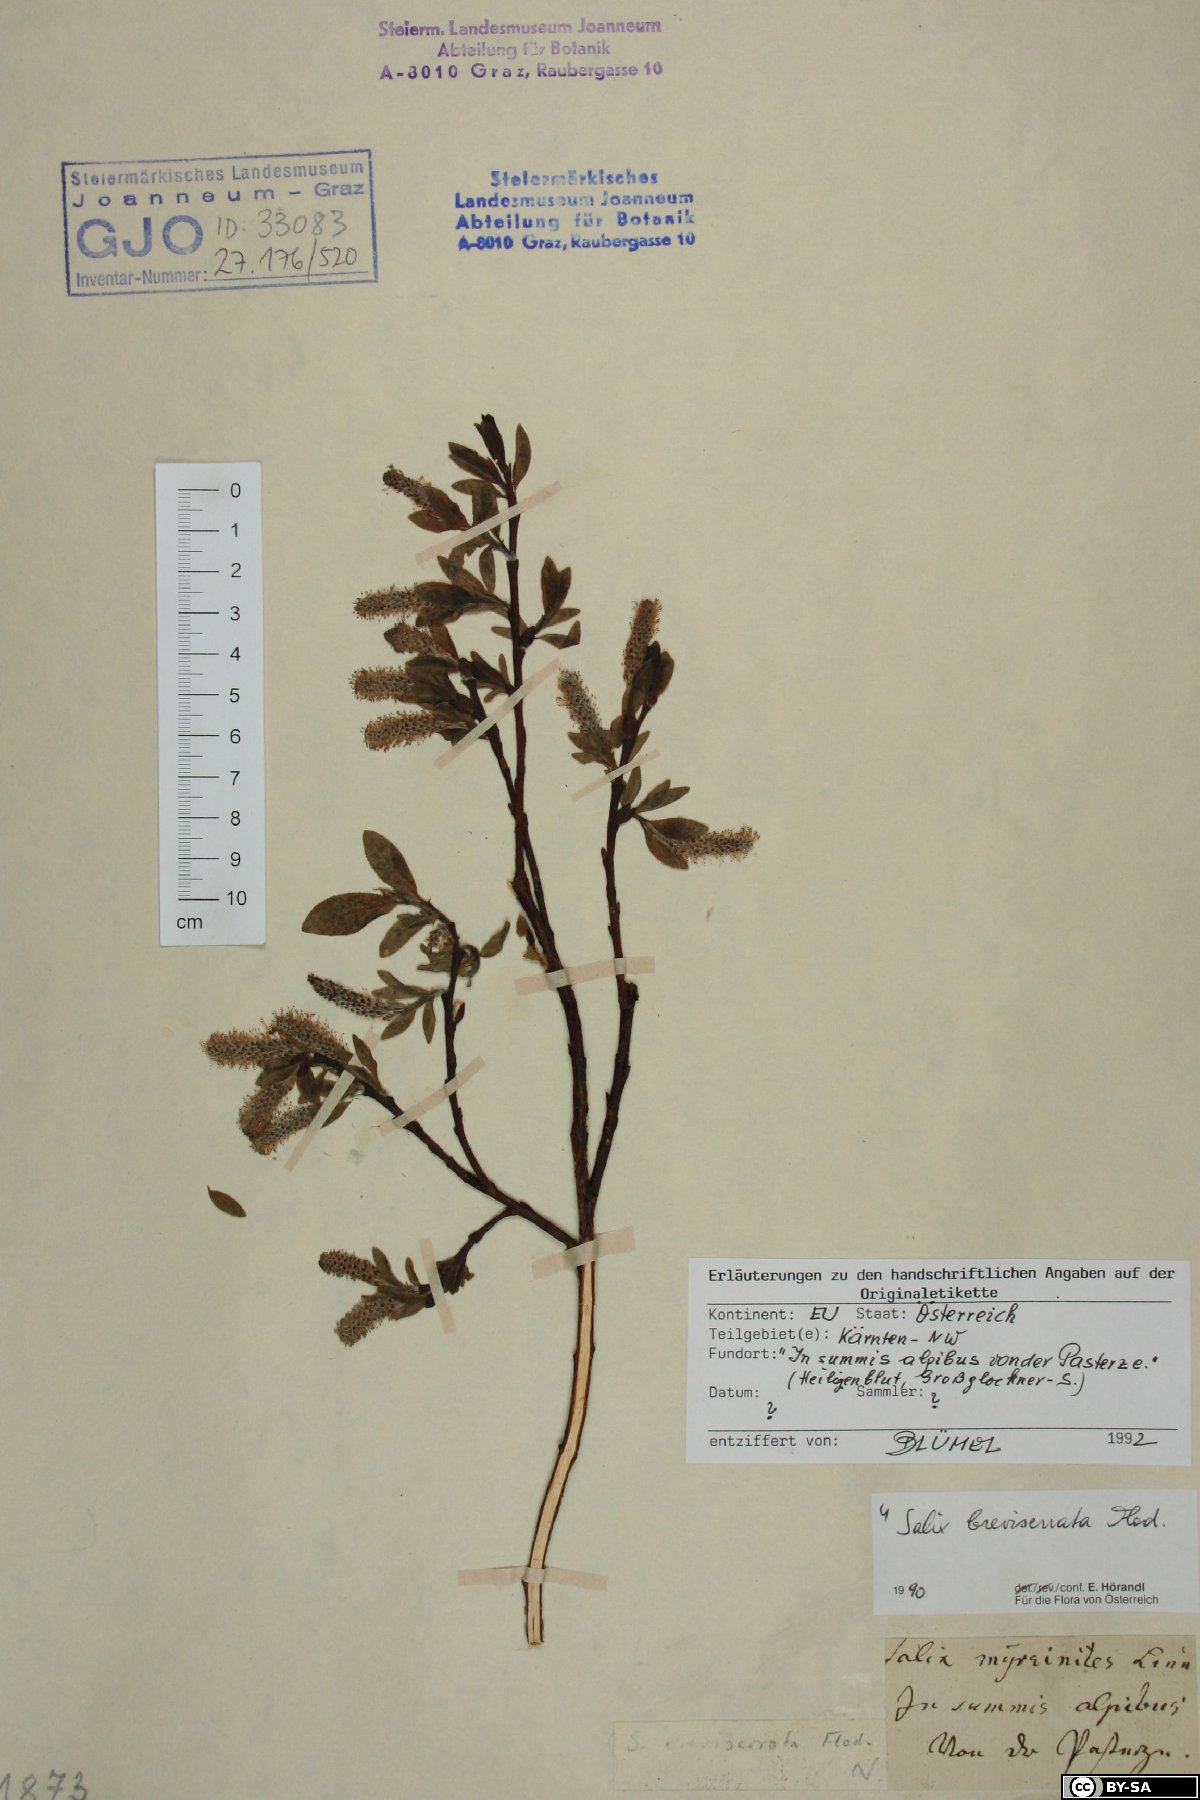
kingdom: Plantae
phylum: Tracheophyta
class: Magnoliopsida
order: Malpighiales
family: Salicaceae
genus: Salix
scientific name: Salix breviserrata
